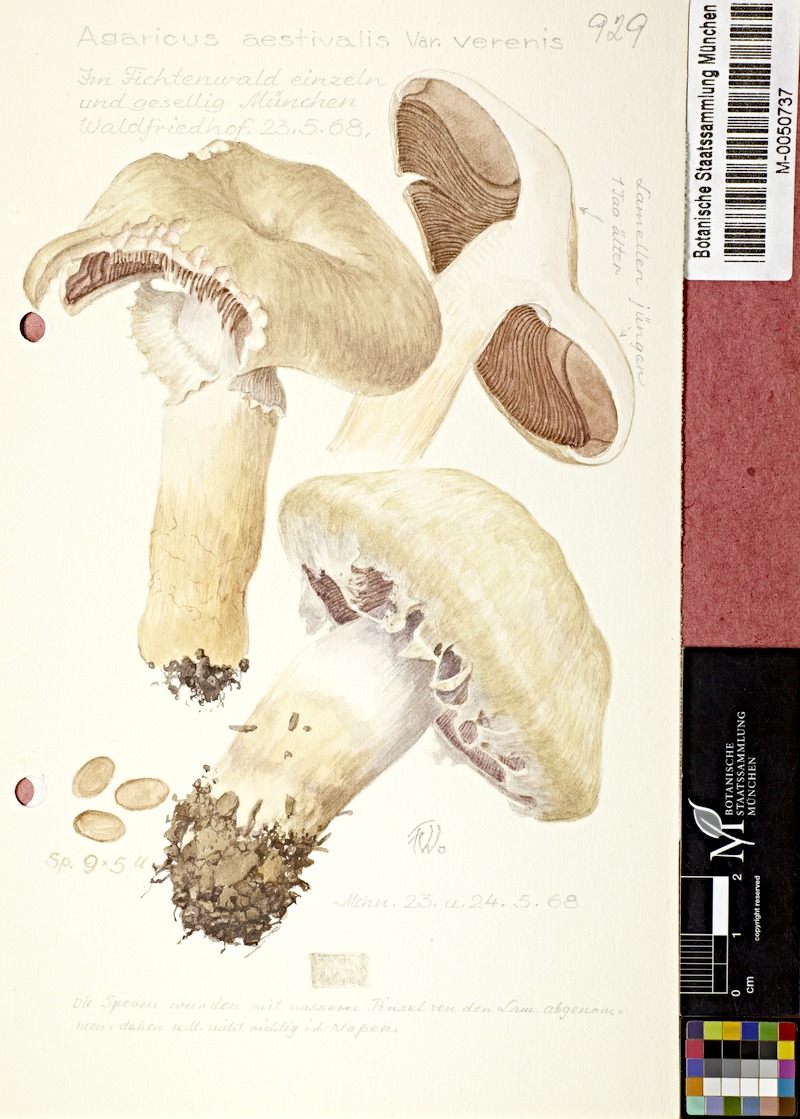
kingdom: Fungi
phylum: Basidiomycota
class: Agaricomycetes
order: Agaricales
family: Agaricaceae
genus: Agaricus
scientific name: Agaricus altipes
